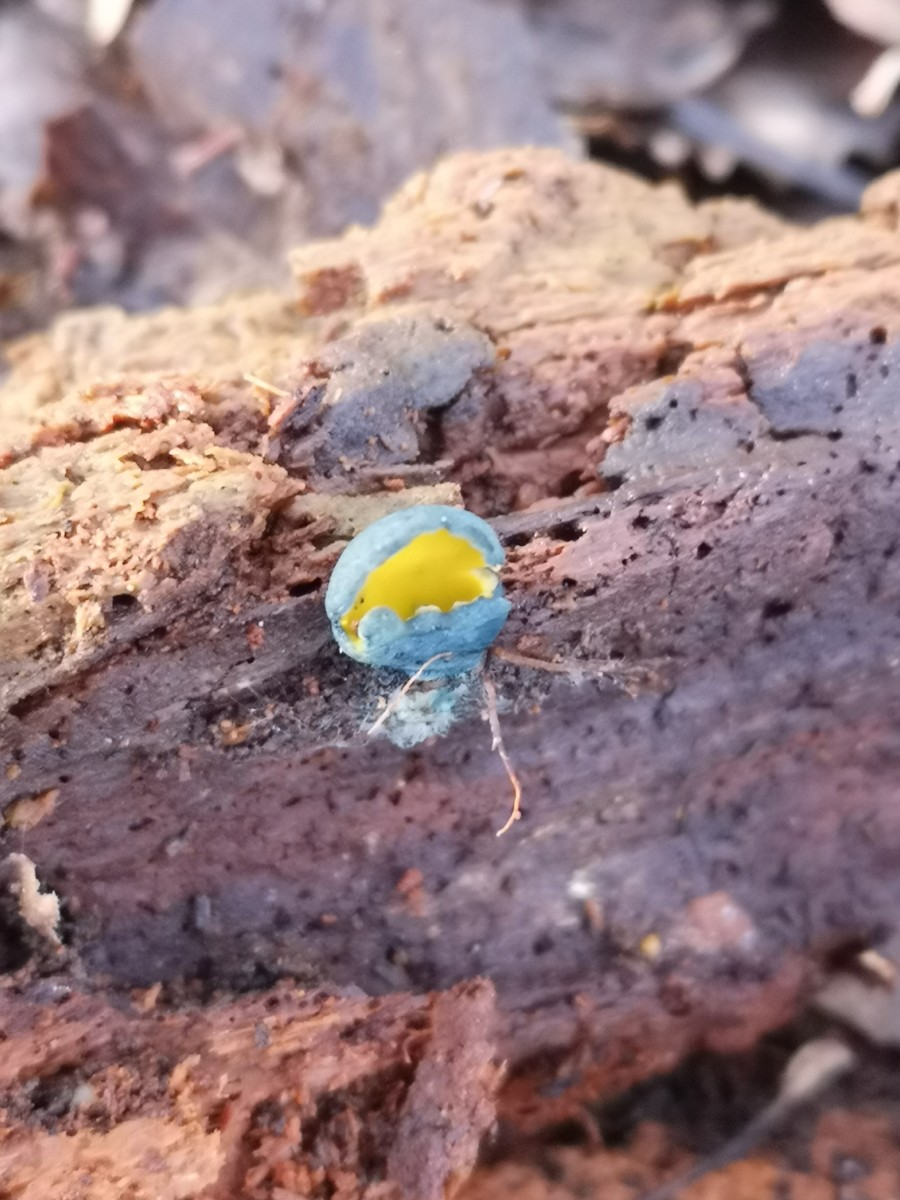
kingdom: Fungi
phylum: Ascomycota
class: Pezizomycetes
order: Pezizales
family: Caloscyphaceae
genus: Caloscypha
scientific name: Caloscypha fulgens
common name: jadebæger
